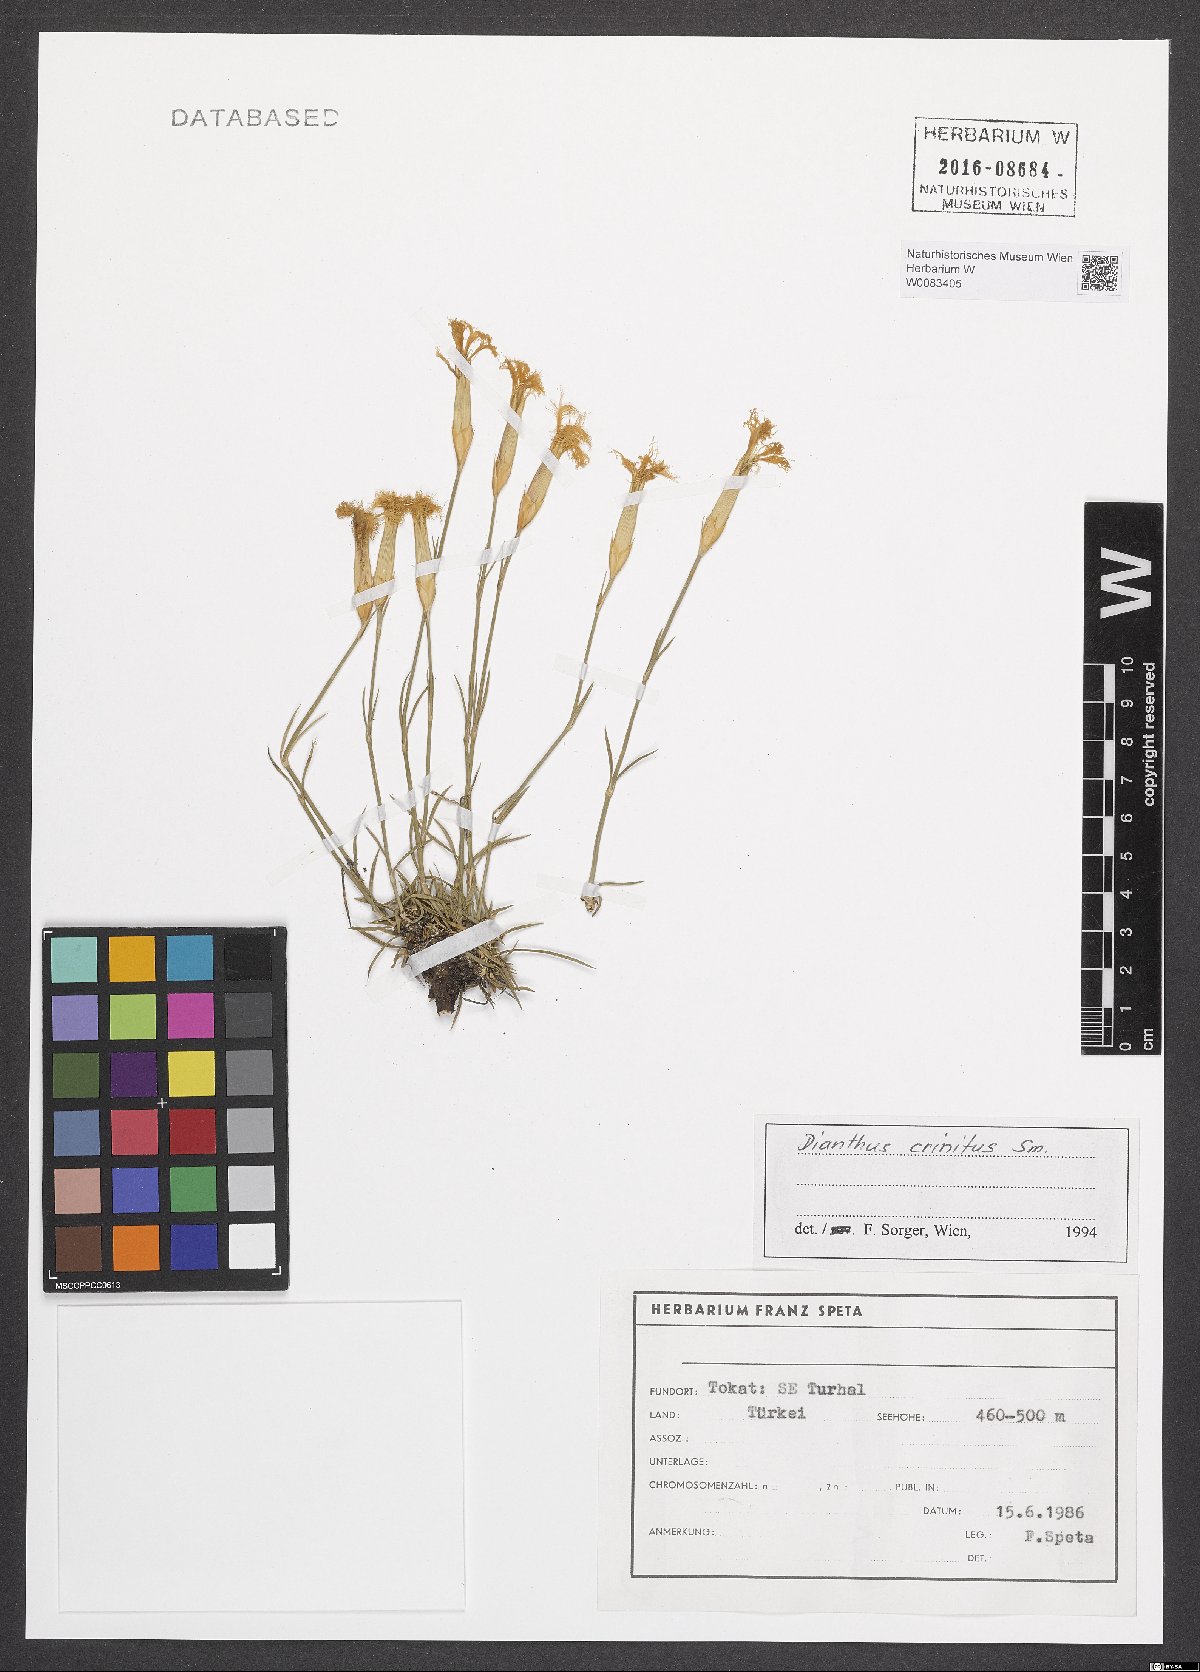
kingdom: Plantae
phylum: Tracheophyta
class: Magnoliopsida
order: Caryophyllales
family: Caryophyllaceae
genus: Dianthus
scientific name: Dianthus crinitus
